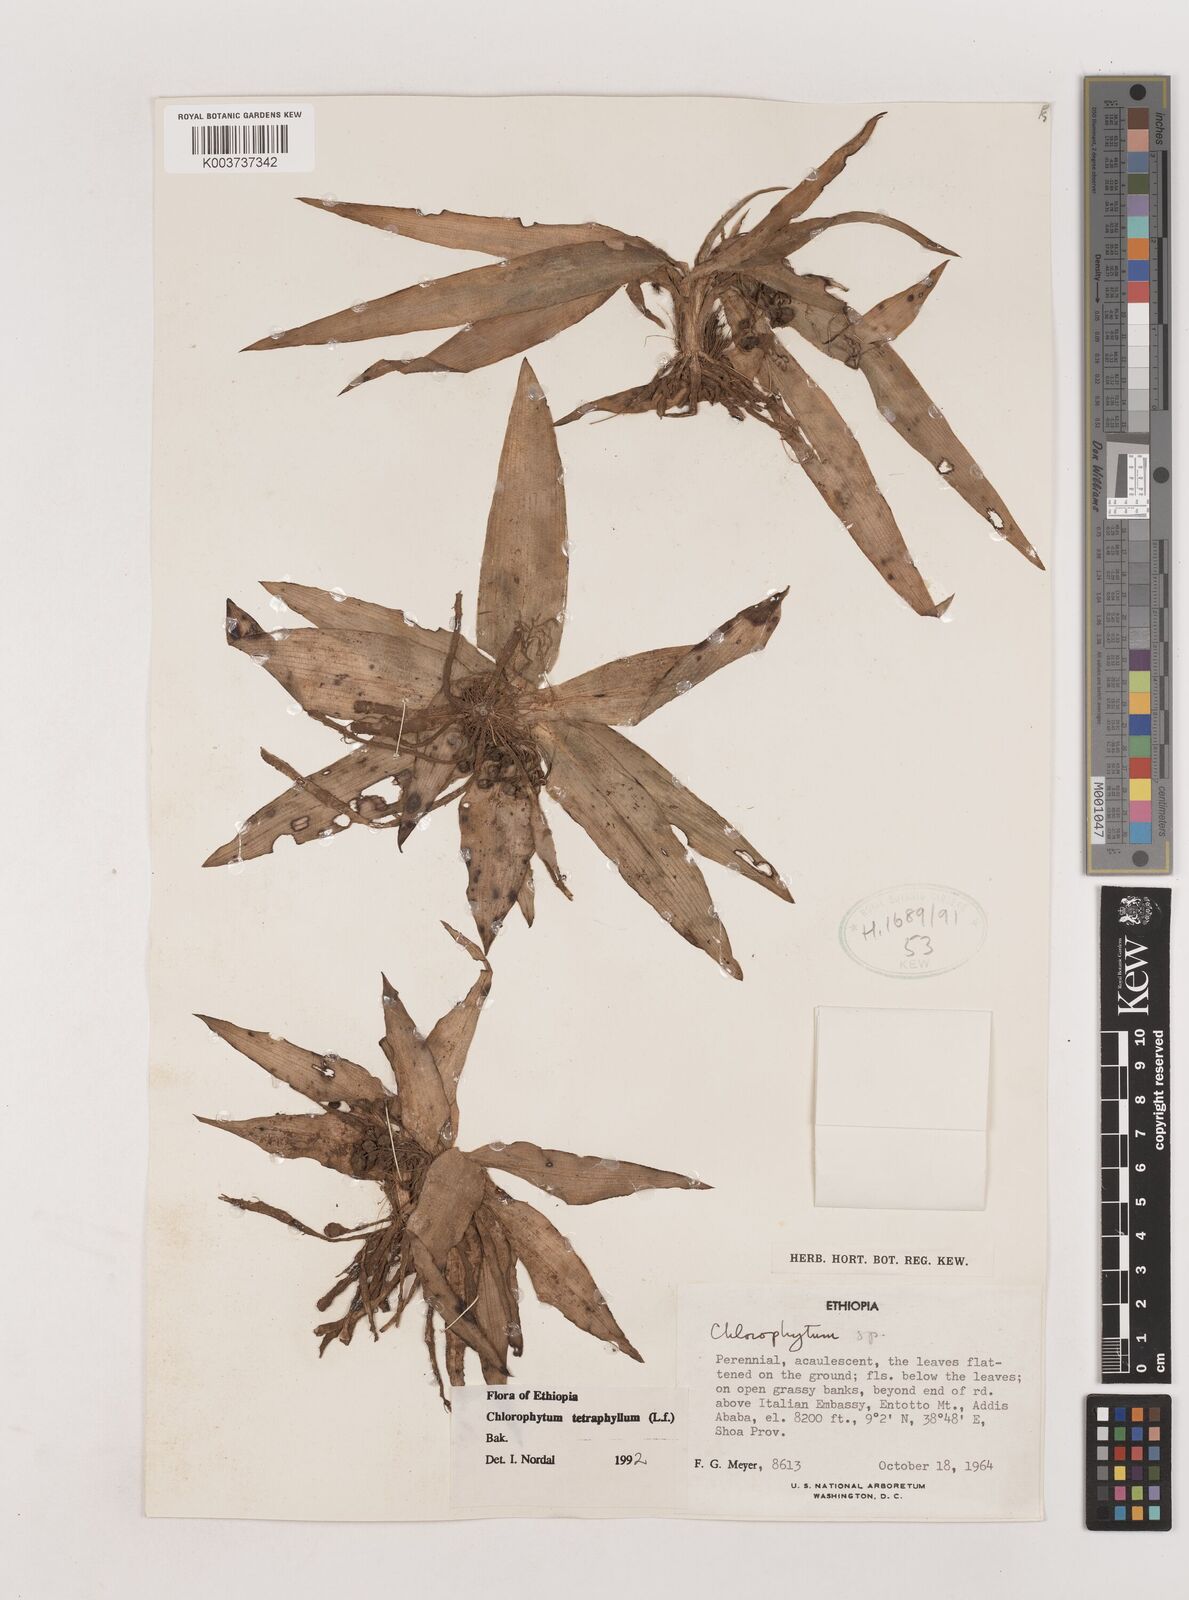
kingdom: Plantae
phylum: Tracheophyta
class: Liliopsida
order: Asparagales
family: Asparagaceae
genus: Chlorophytum
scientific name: Chlorophytum tetraphyllum
